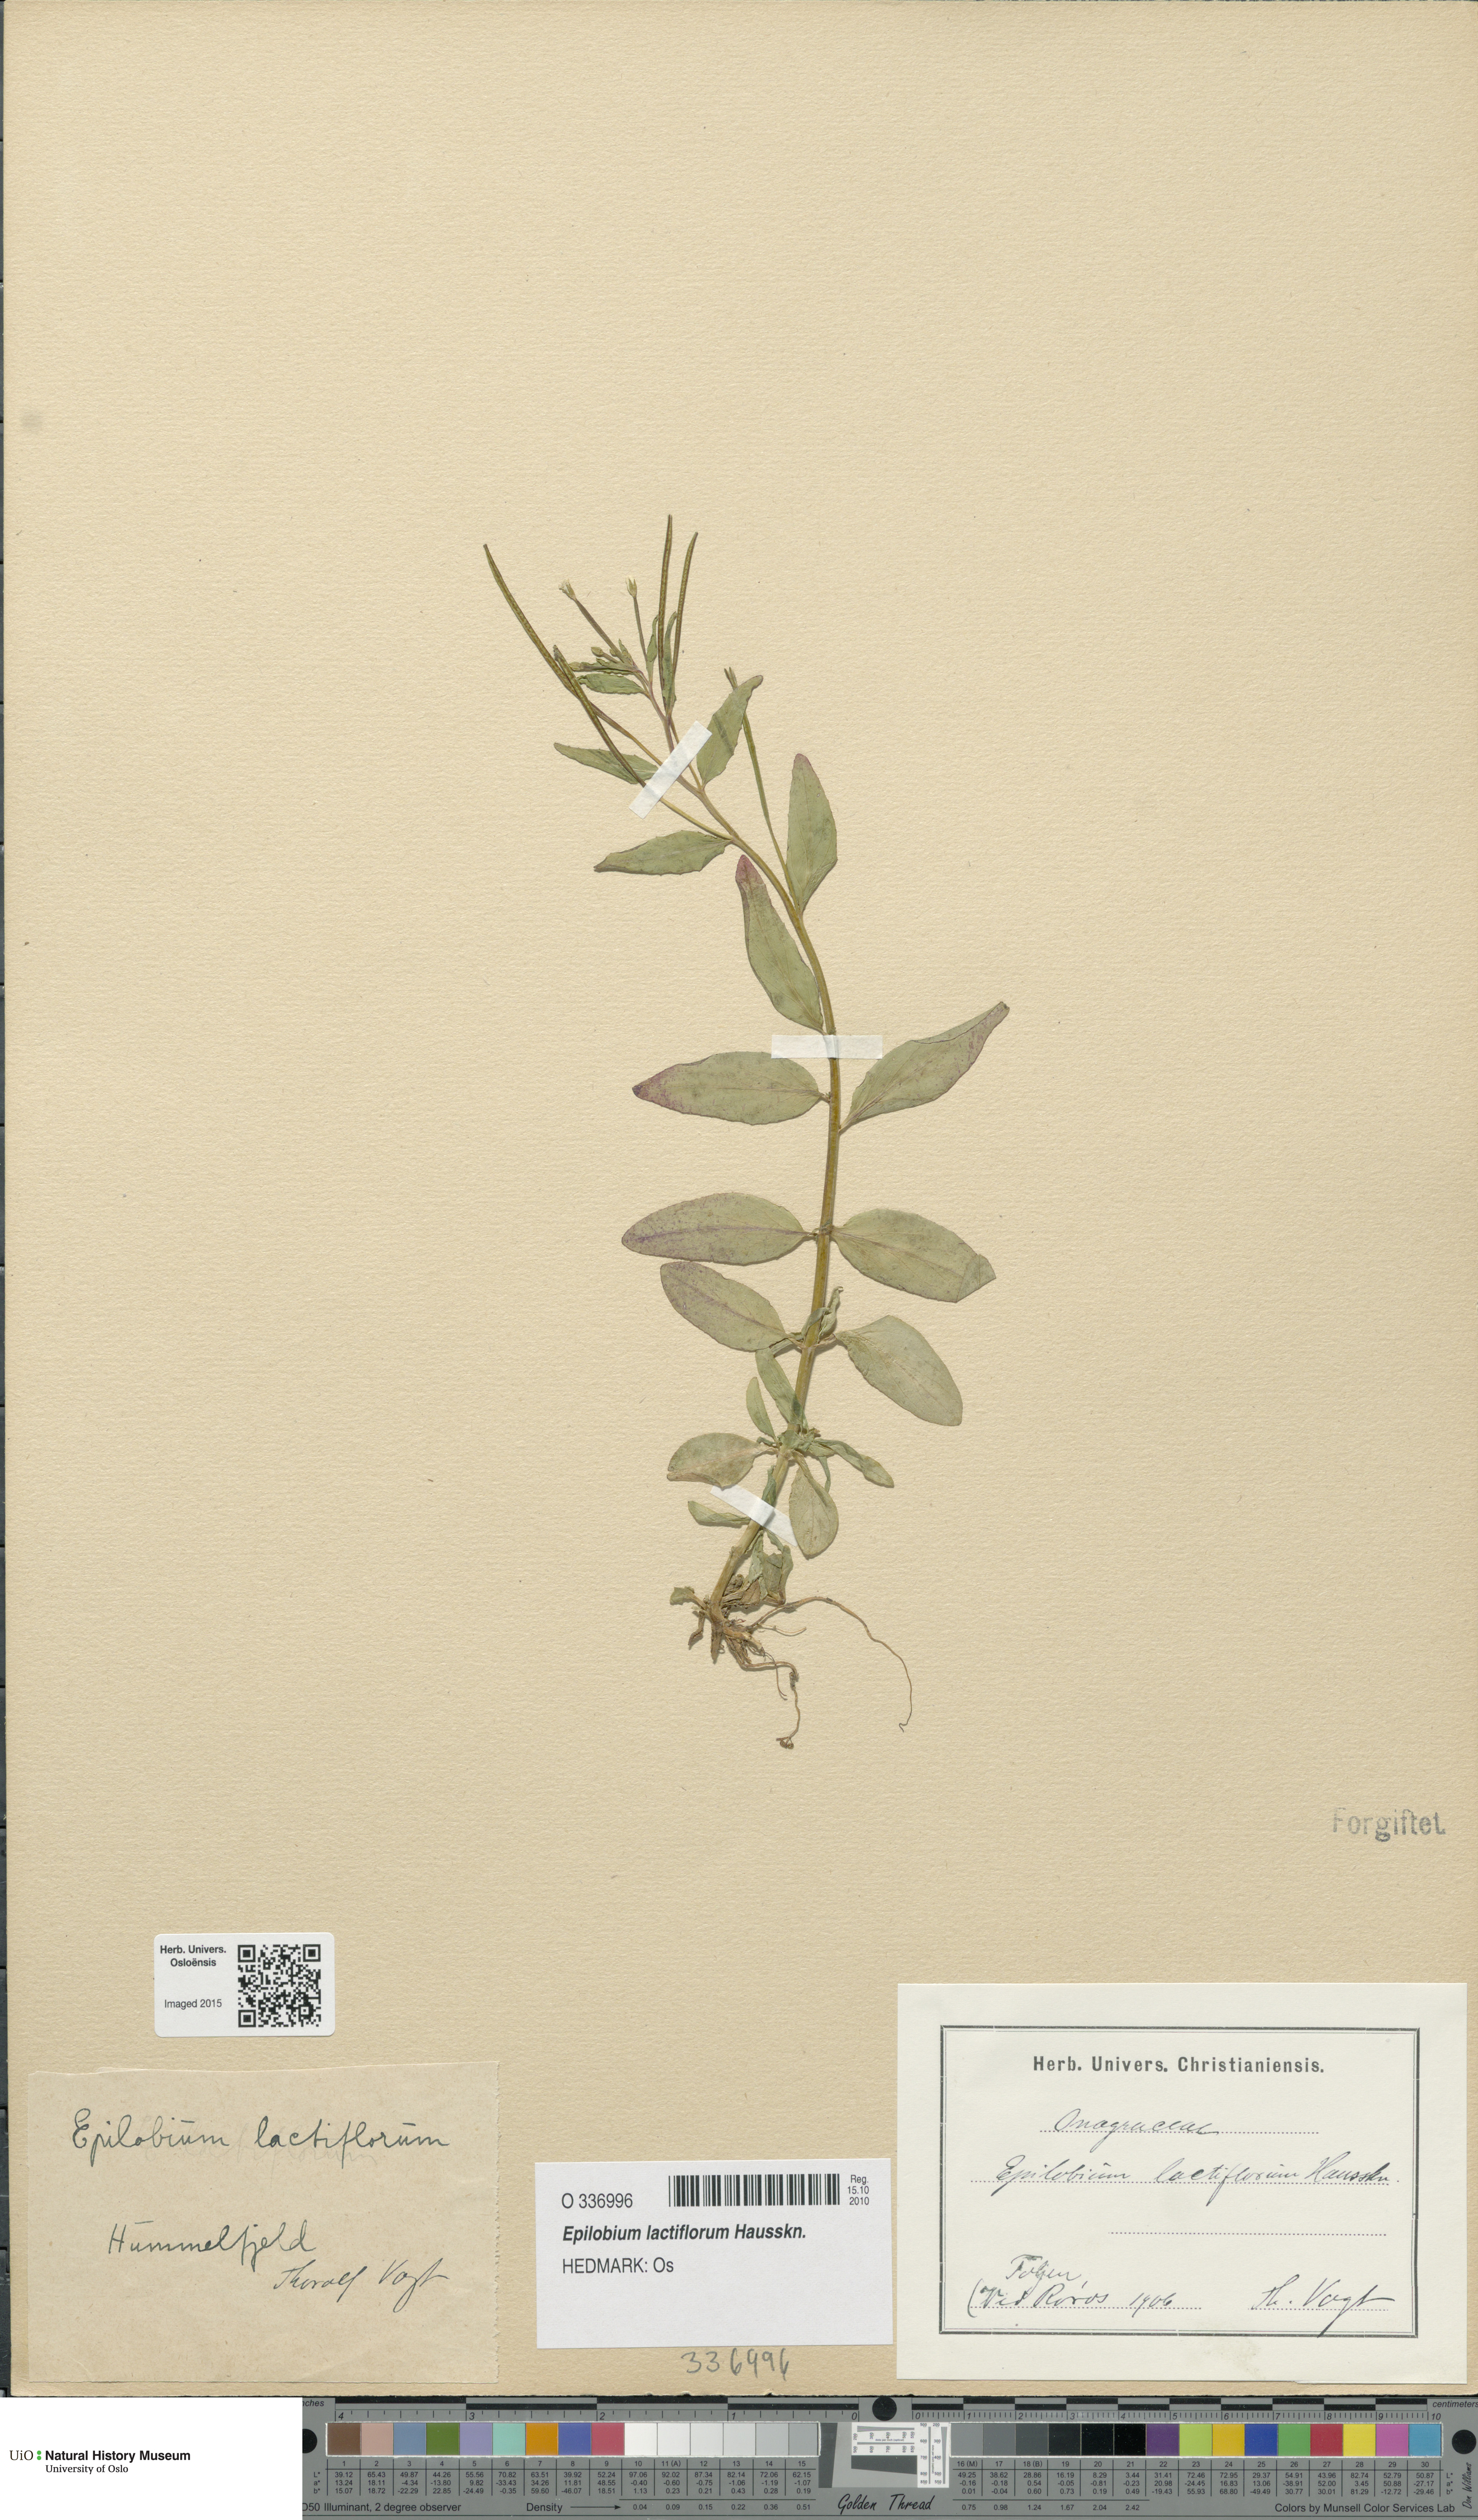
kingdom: Plantae
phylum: Tracheophyta
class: Magnoliopsida
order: Myrtales
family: Onagraceae
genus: Epilobium
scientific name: Epilobium lactiflorum
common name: Milkflower willowherb
